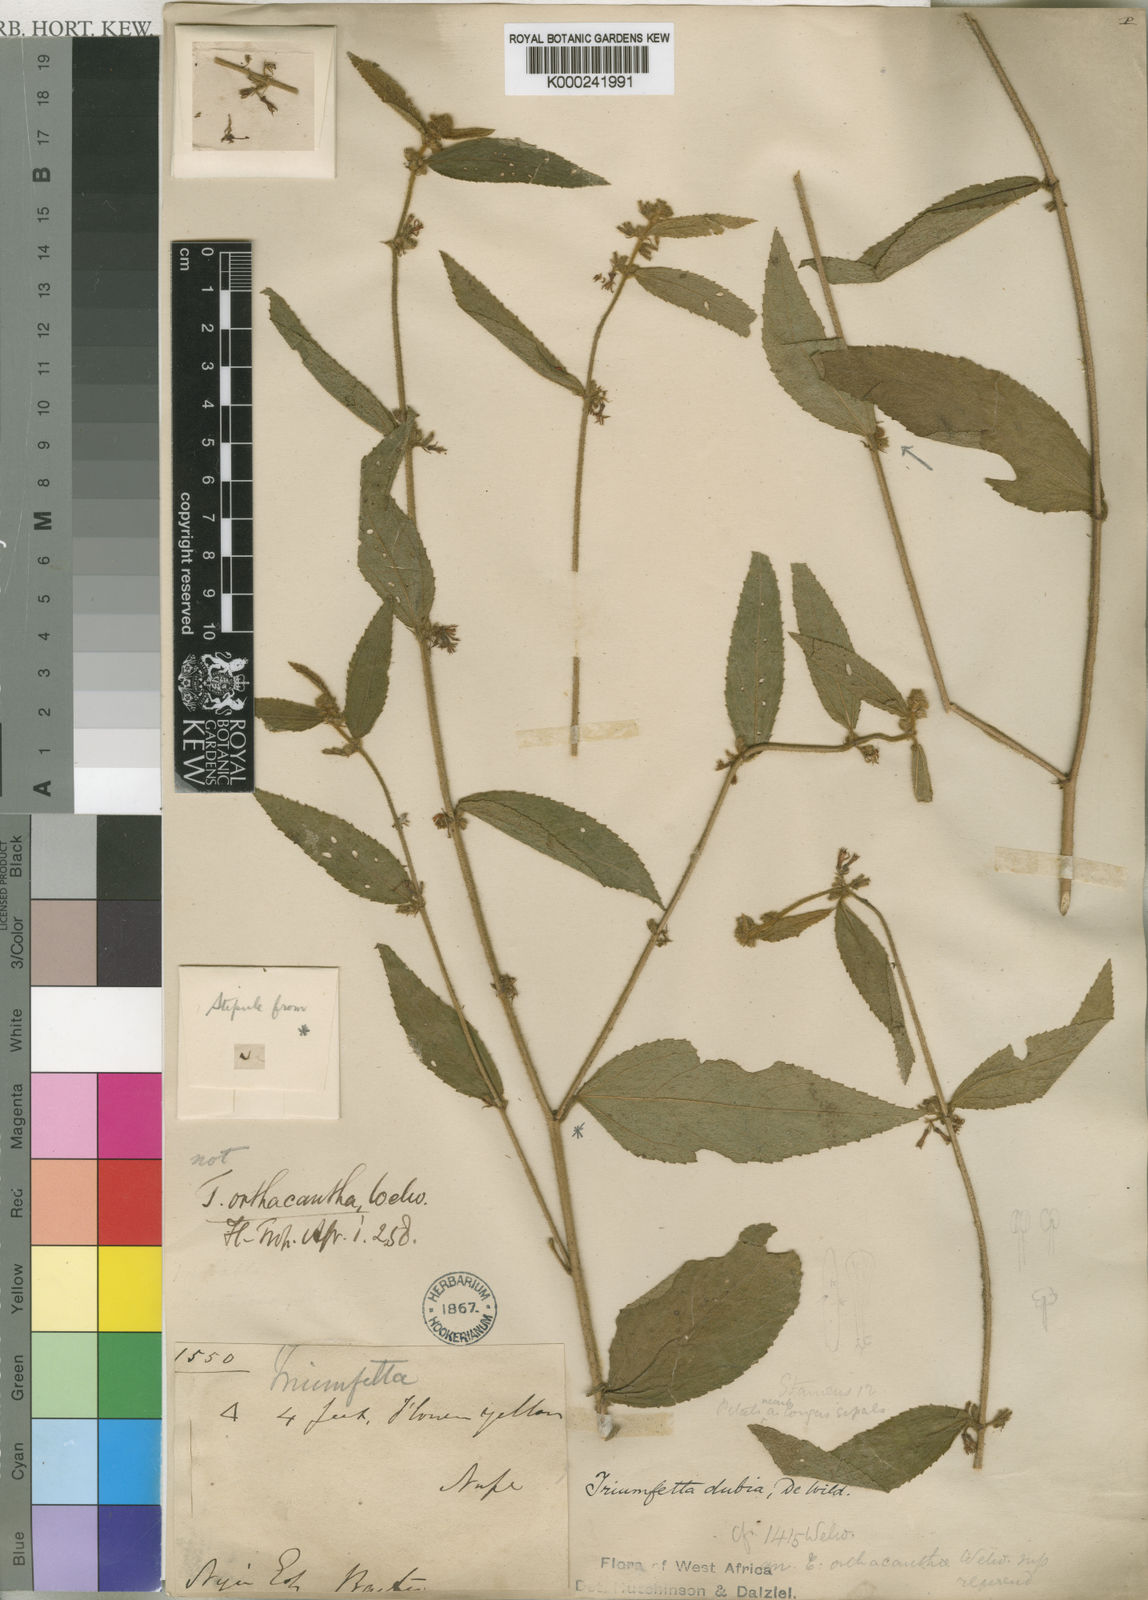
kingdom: Plantae
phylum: Tracheophyta
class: Magnoliopsida
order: Malvales
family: Malvaceae
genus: Triumfetta
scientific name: Triumfetta setulosa
